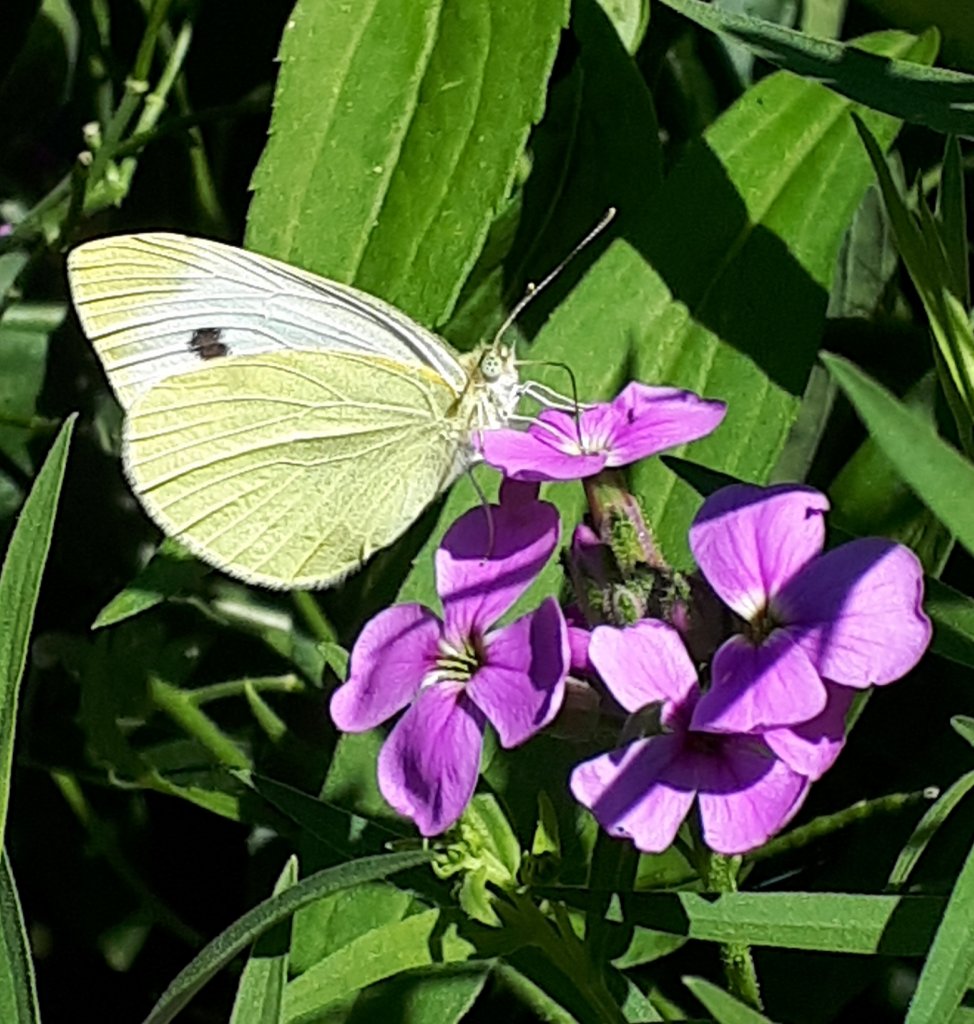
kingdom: Animalia
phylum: Arthropoda
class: Insecta
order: Lepidoptera
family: Pieridae
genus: Pieris
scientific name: Pieris rapae
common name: Cabbage White
